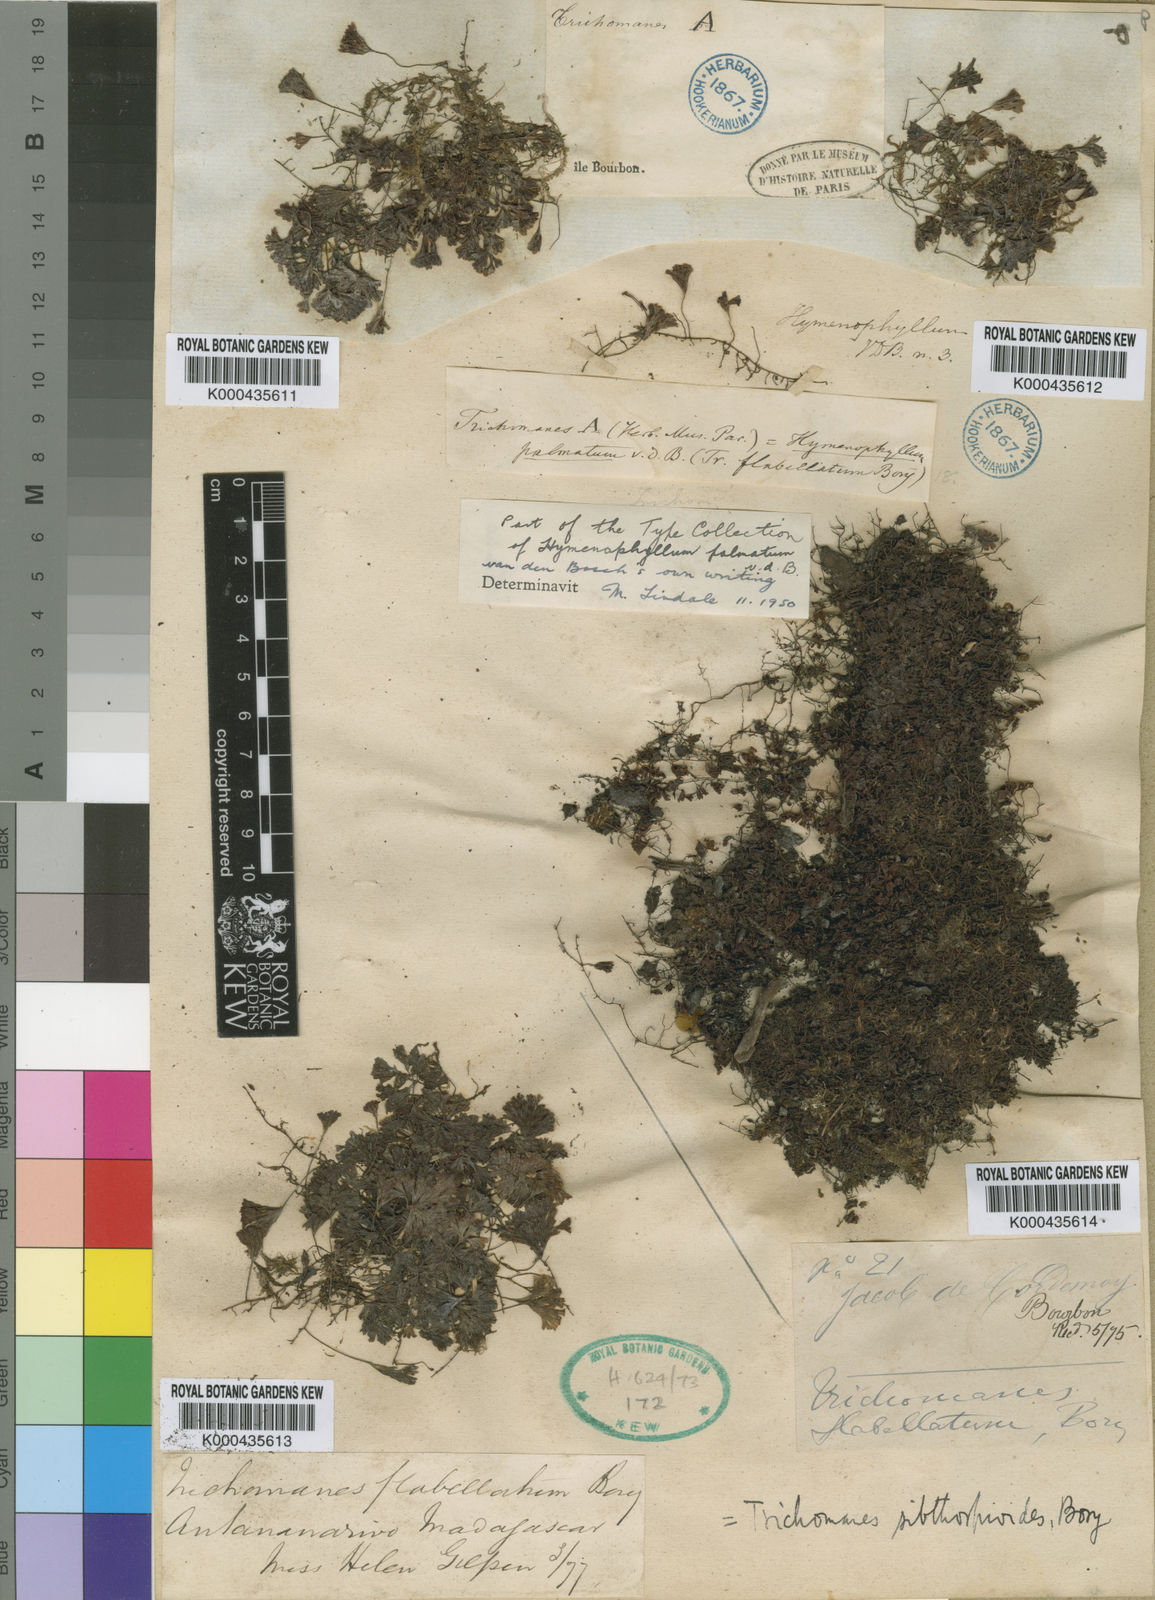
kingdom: Plantae
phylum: Tracheophyta
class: Polypodiopsida
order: Hymenophyllales
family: Hymenophyllaceae
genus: Hymenophyllum
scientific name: Hymenophyllum sibthorpioides
